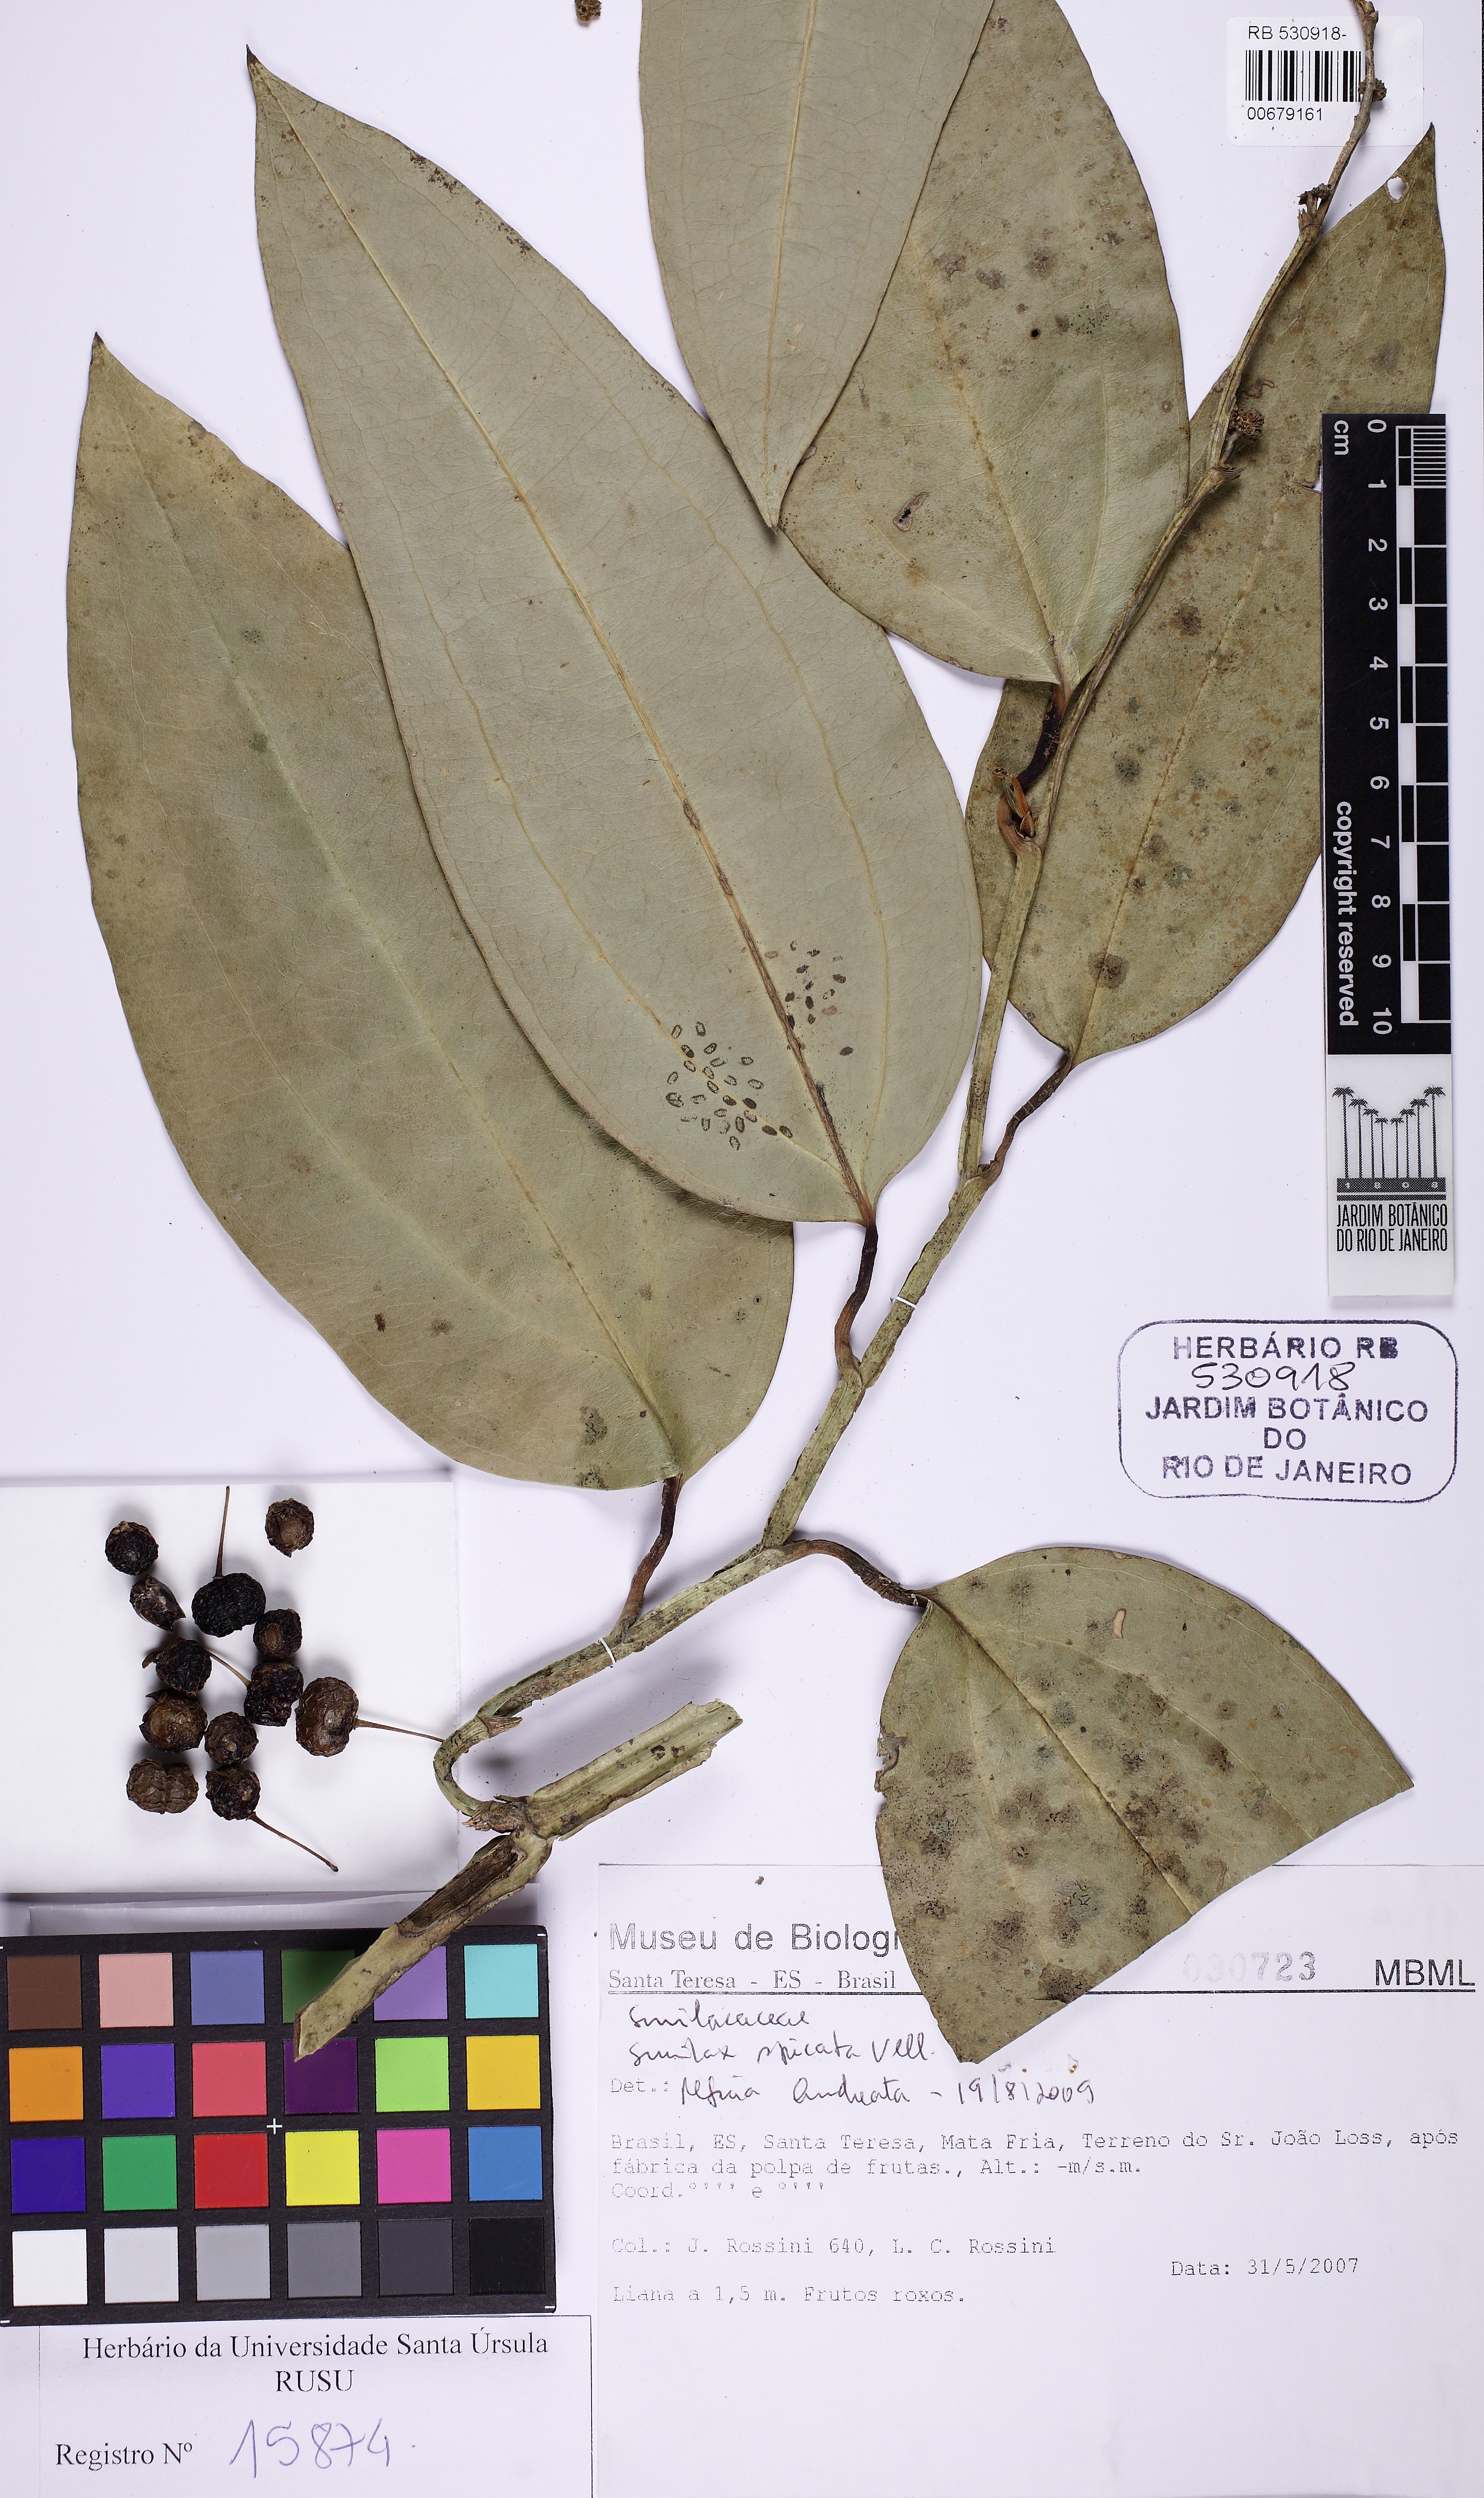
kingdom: Plantae
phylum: Tracheophyta
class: Liliopsida
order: Liliales
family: Smilacaceae
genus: Smilax
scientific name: Smilax spicata
